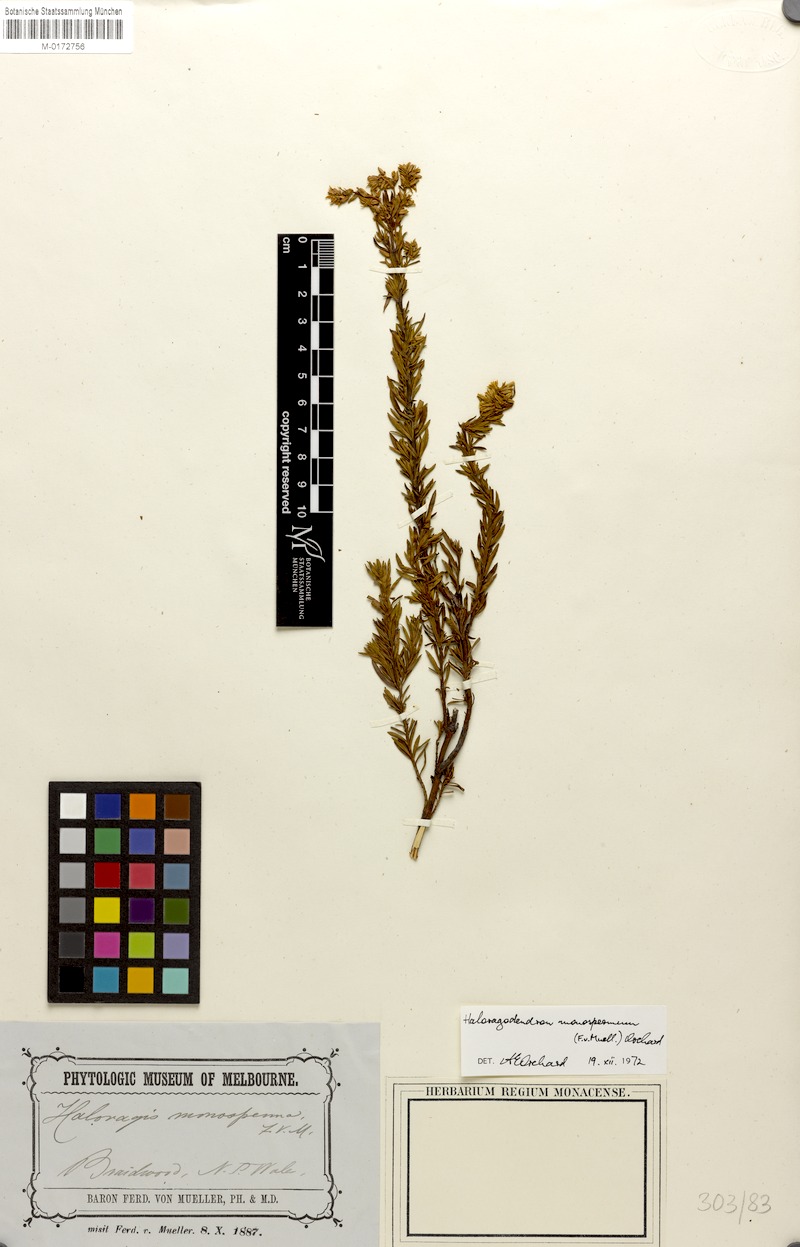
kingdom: Plantae
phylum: Tracheophyta
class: Magnoliopsida
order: Saxifragales
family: Haloragaceae
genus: Glischrocaryon
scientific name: Glischrocaryon monospermum
